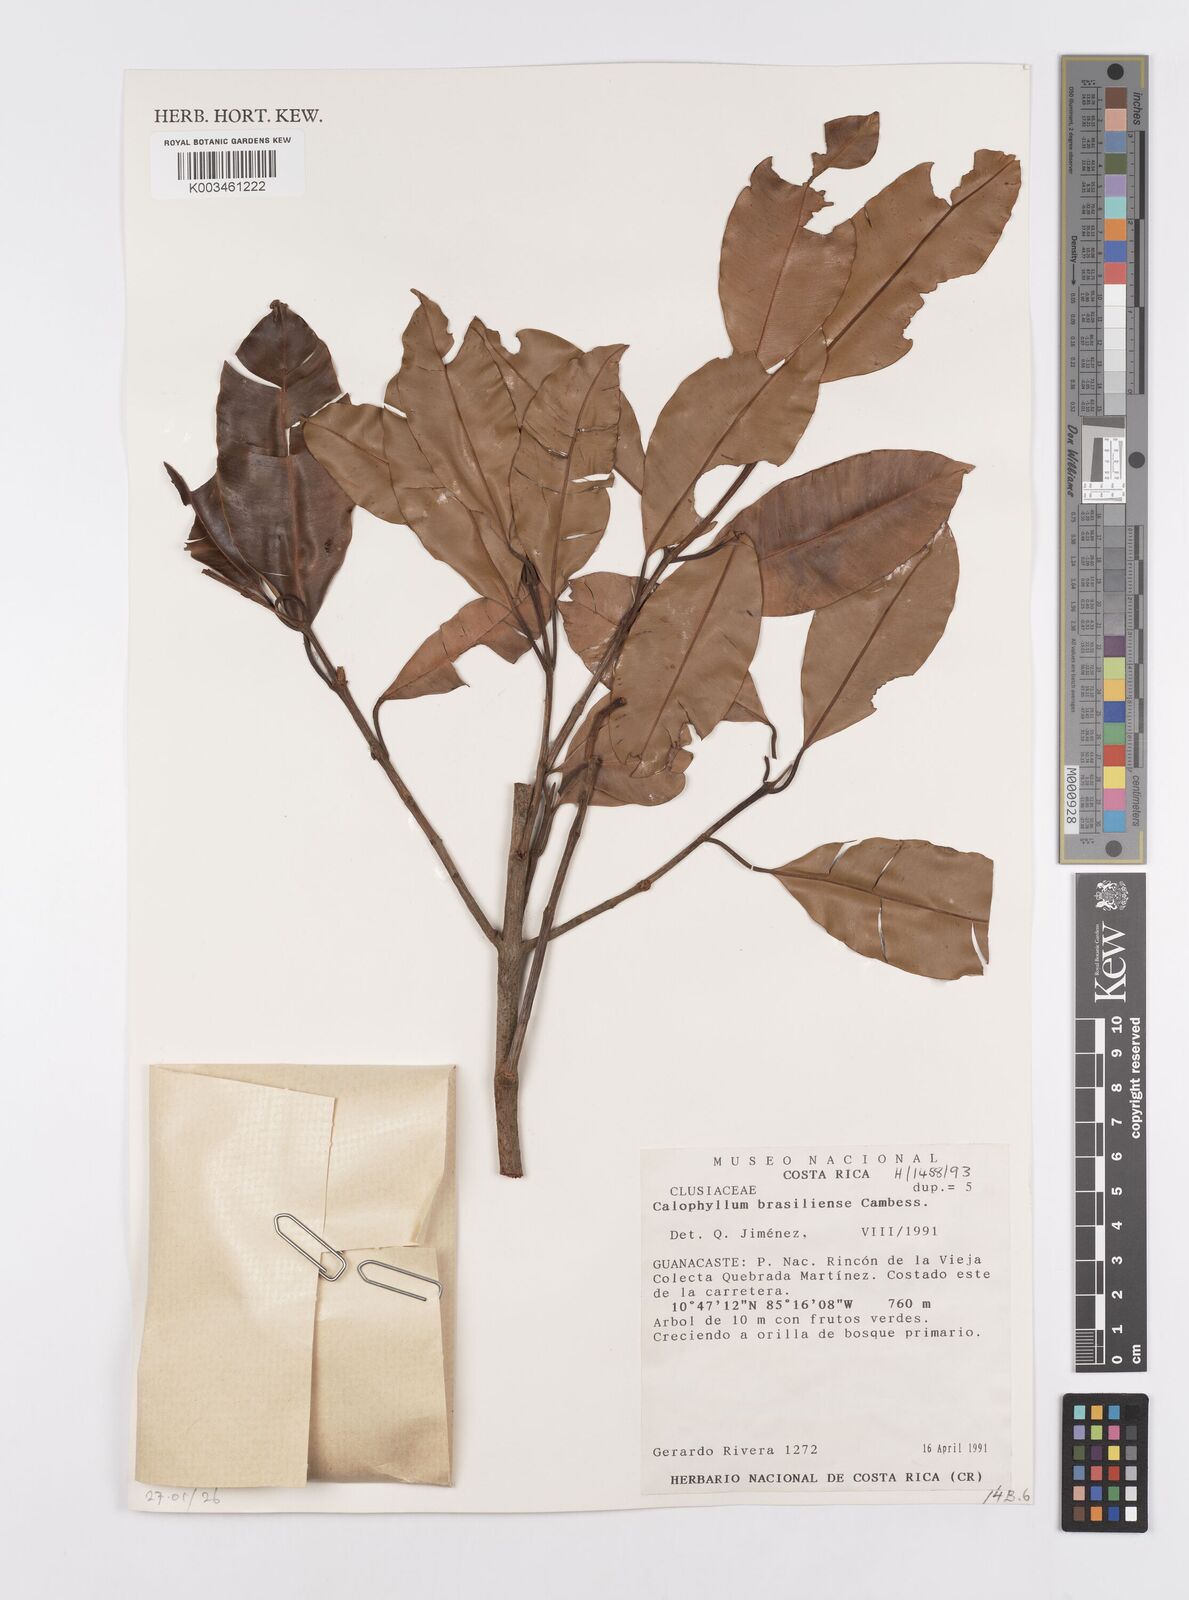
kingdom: Plantae
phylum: Tracheophyta
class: Magnoliopsida
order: Malpighiales
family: Calophyllaceae
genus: Calophyllum
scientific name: Calophyllum brasiliense
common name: Santa maria
